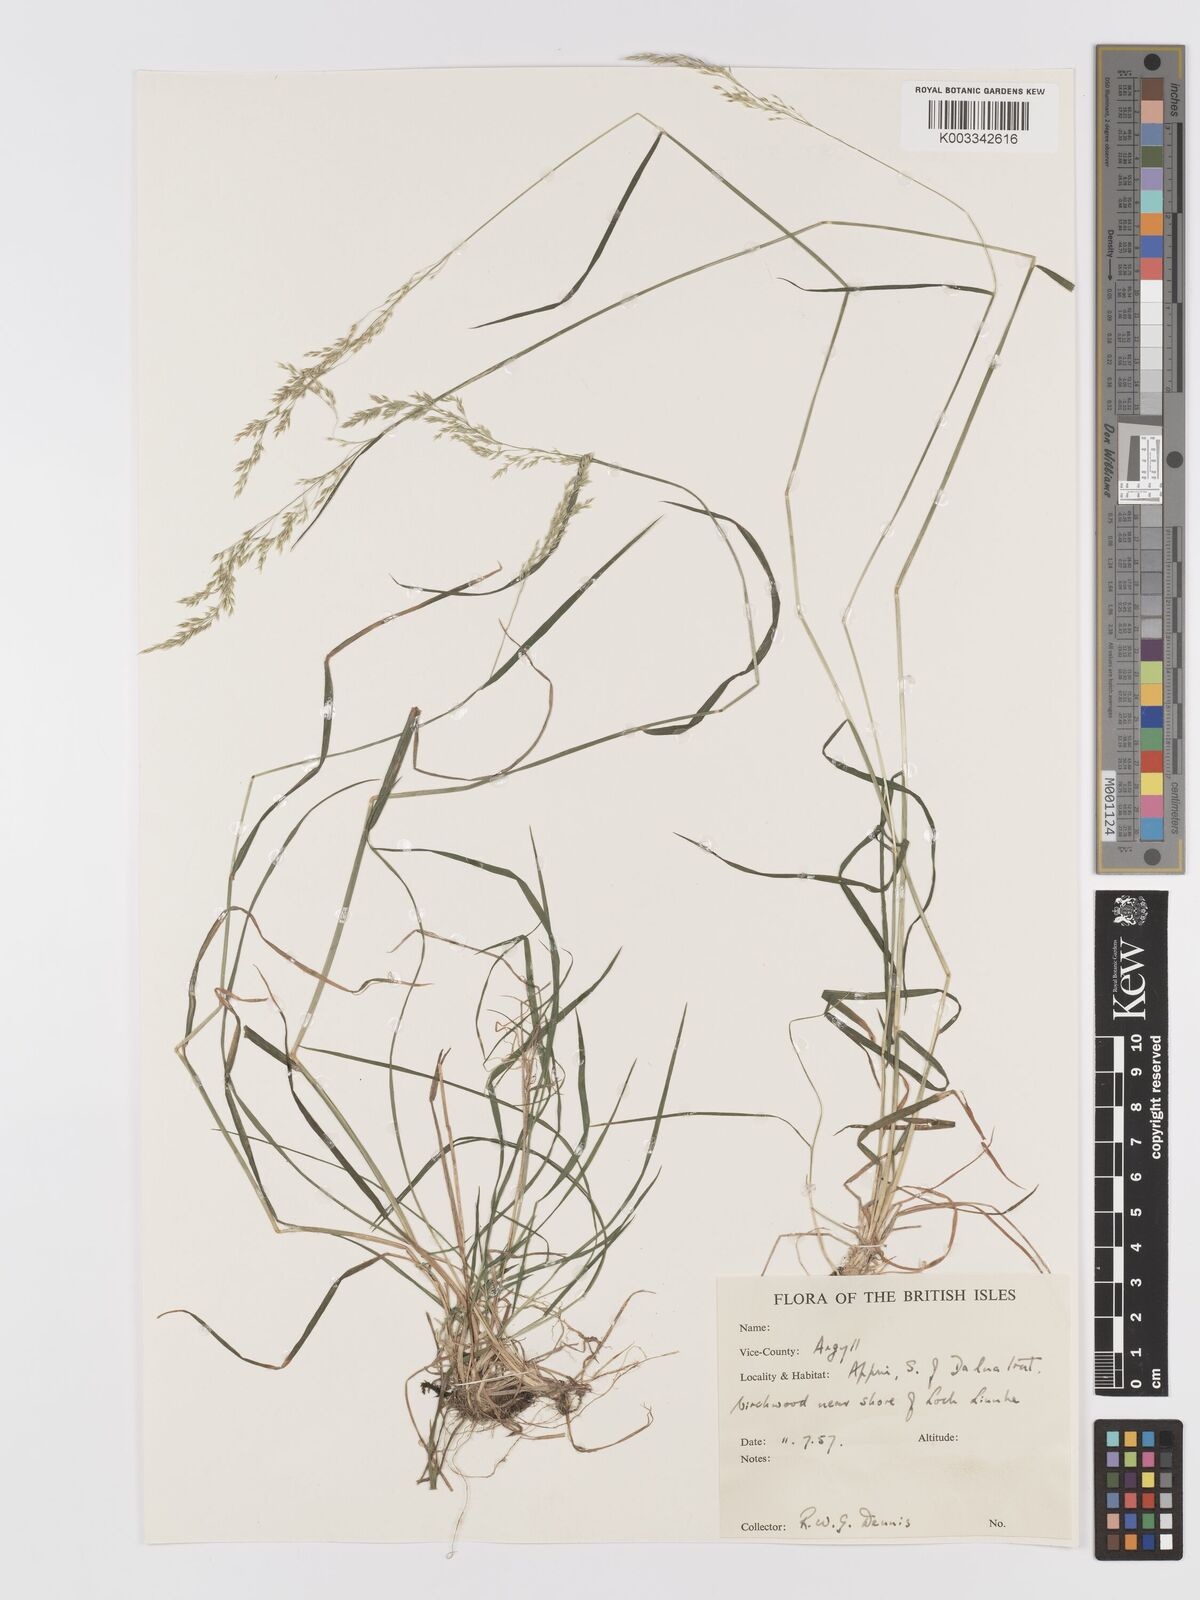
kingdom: Plantae
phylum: Tracheophyta
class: Liliopsida
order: Poales
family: Poaceae
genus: Agrostis
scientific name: Agrostis
